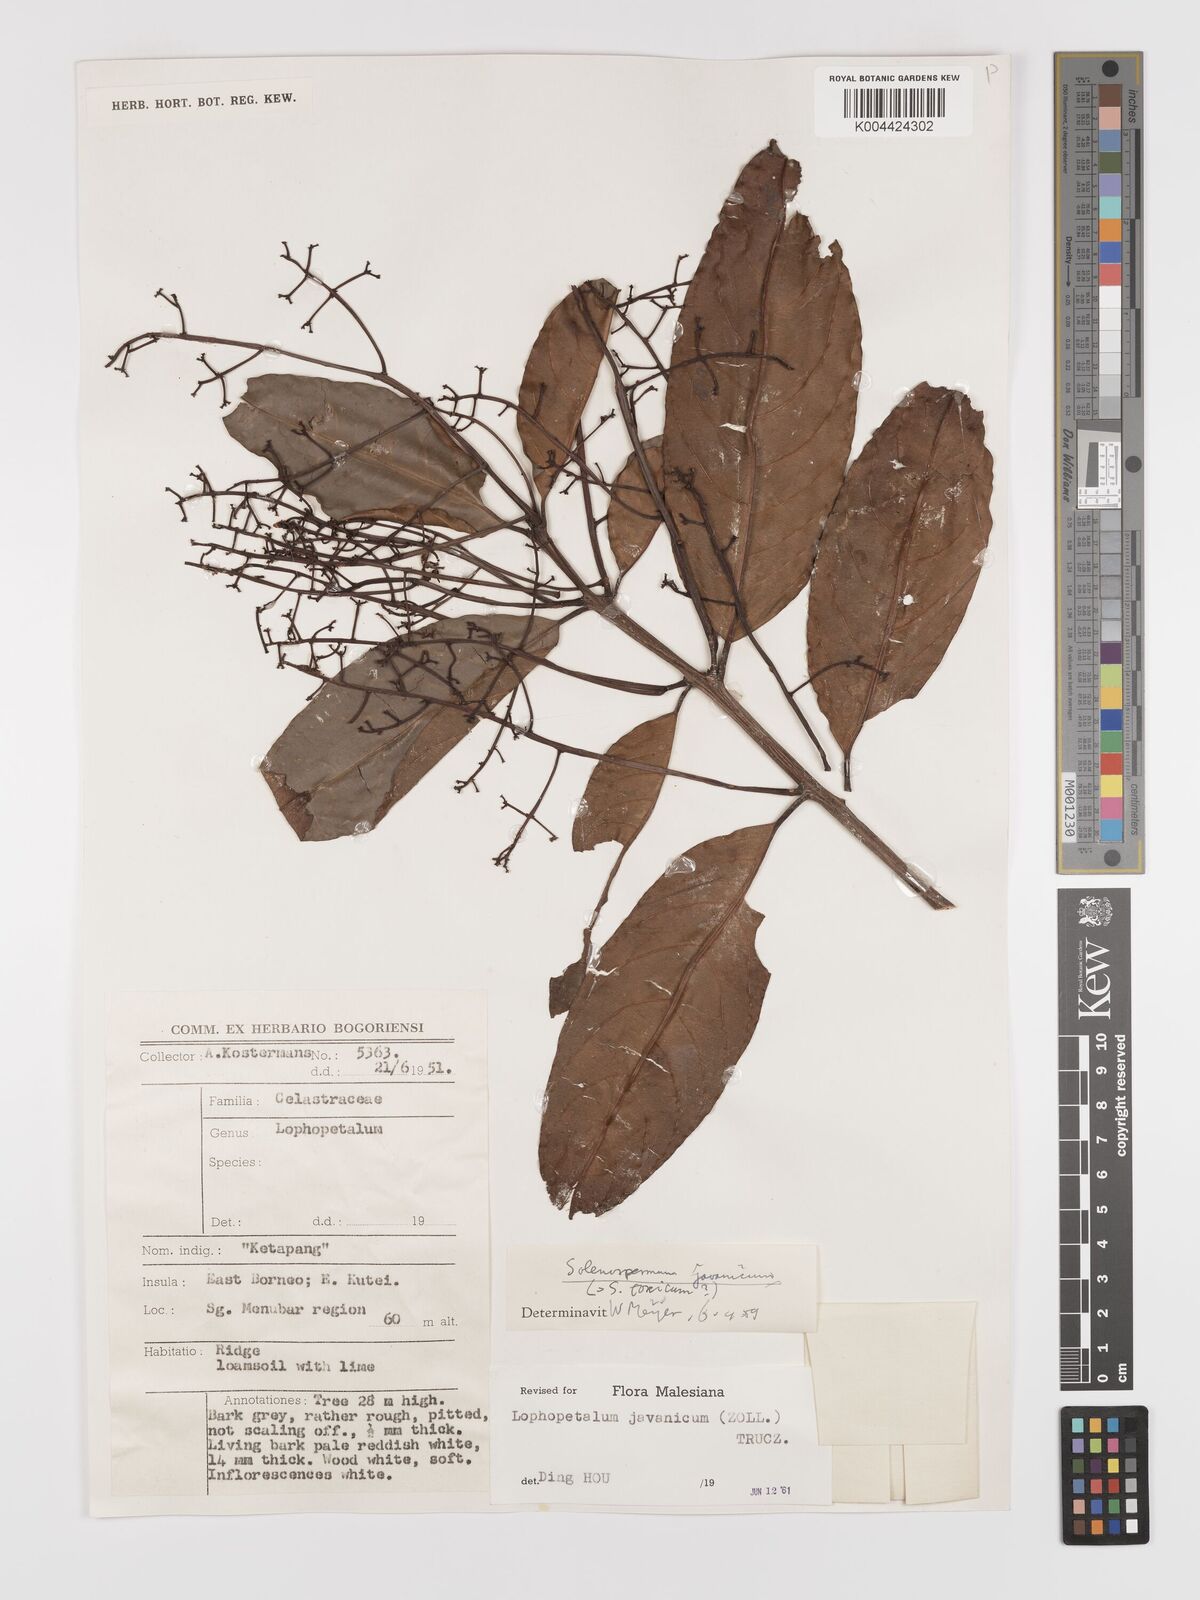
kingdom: Plantae
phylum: Tracheophyta
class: Magnoliopsida
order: Celastrales
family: Celastraceae
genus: Lophopetalum
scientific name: Lophopetalum javanicum
